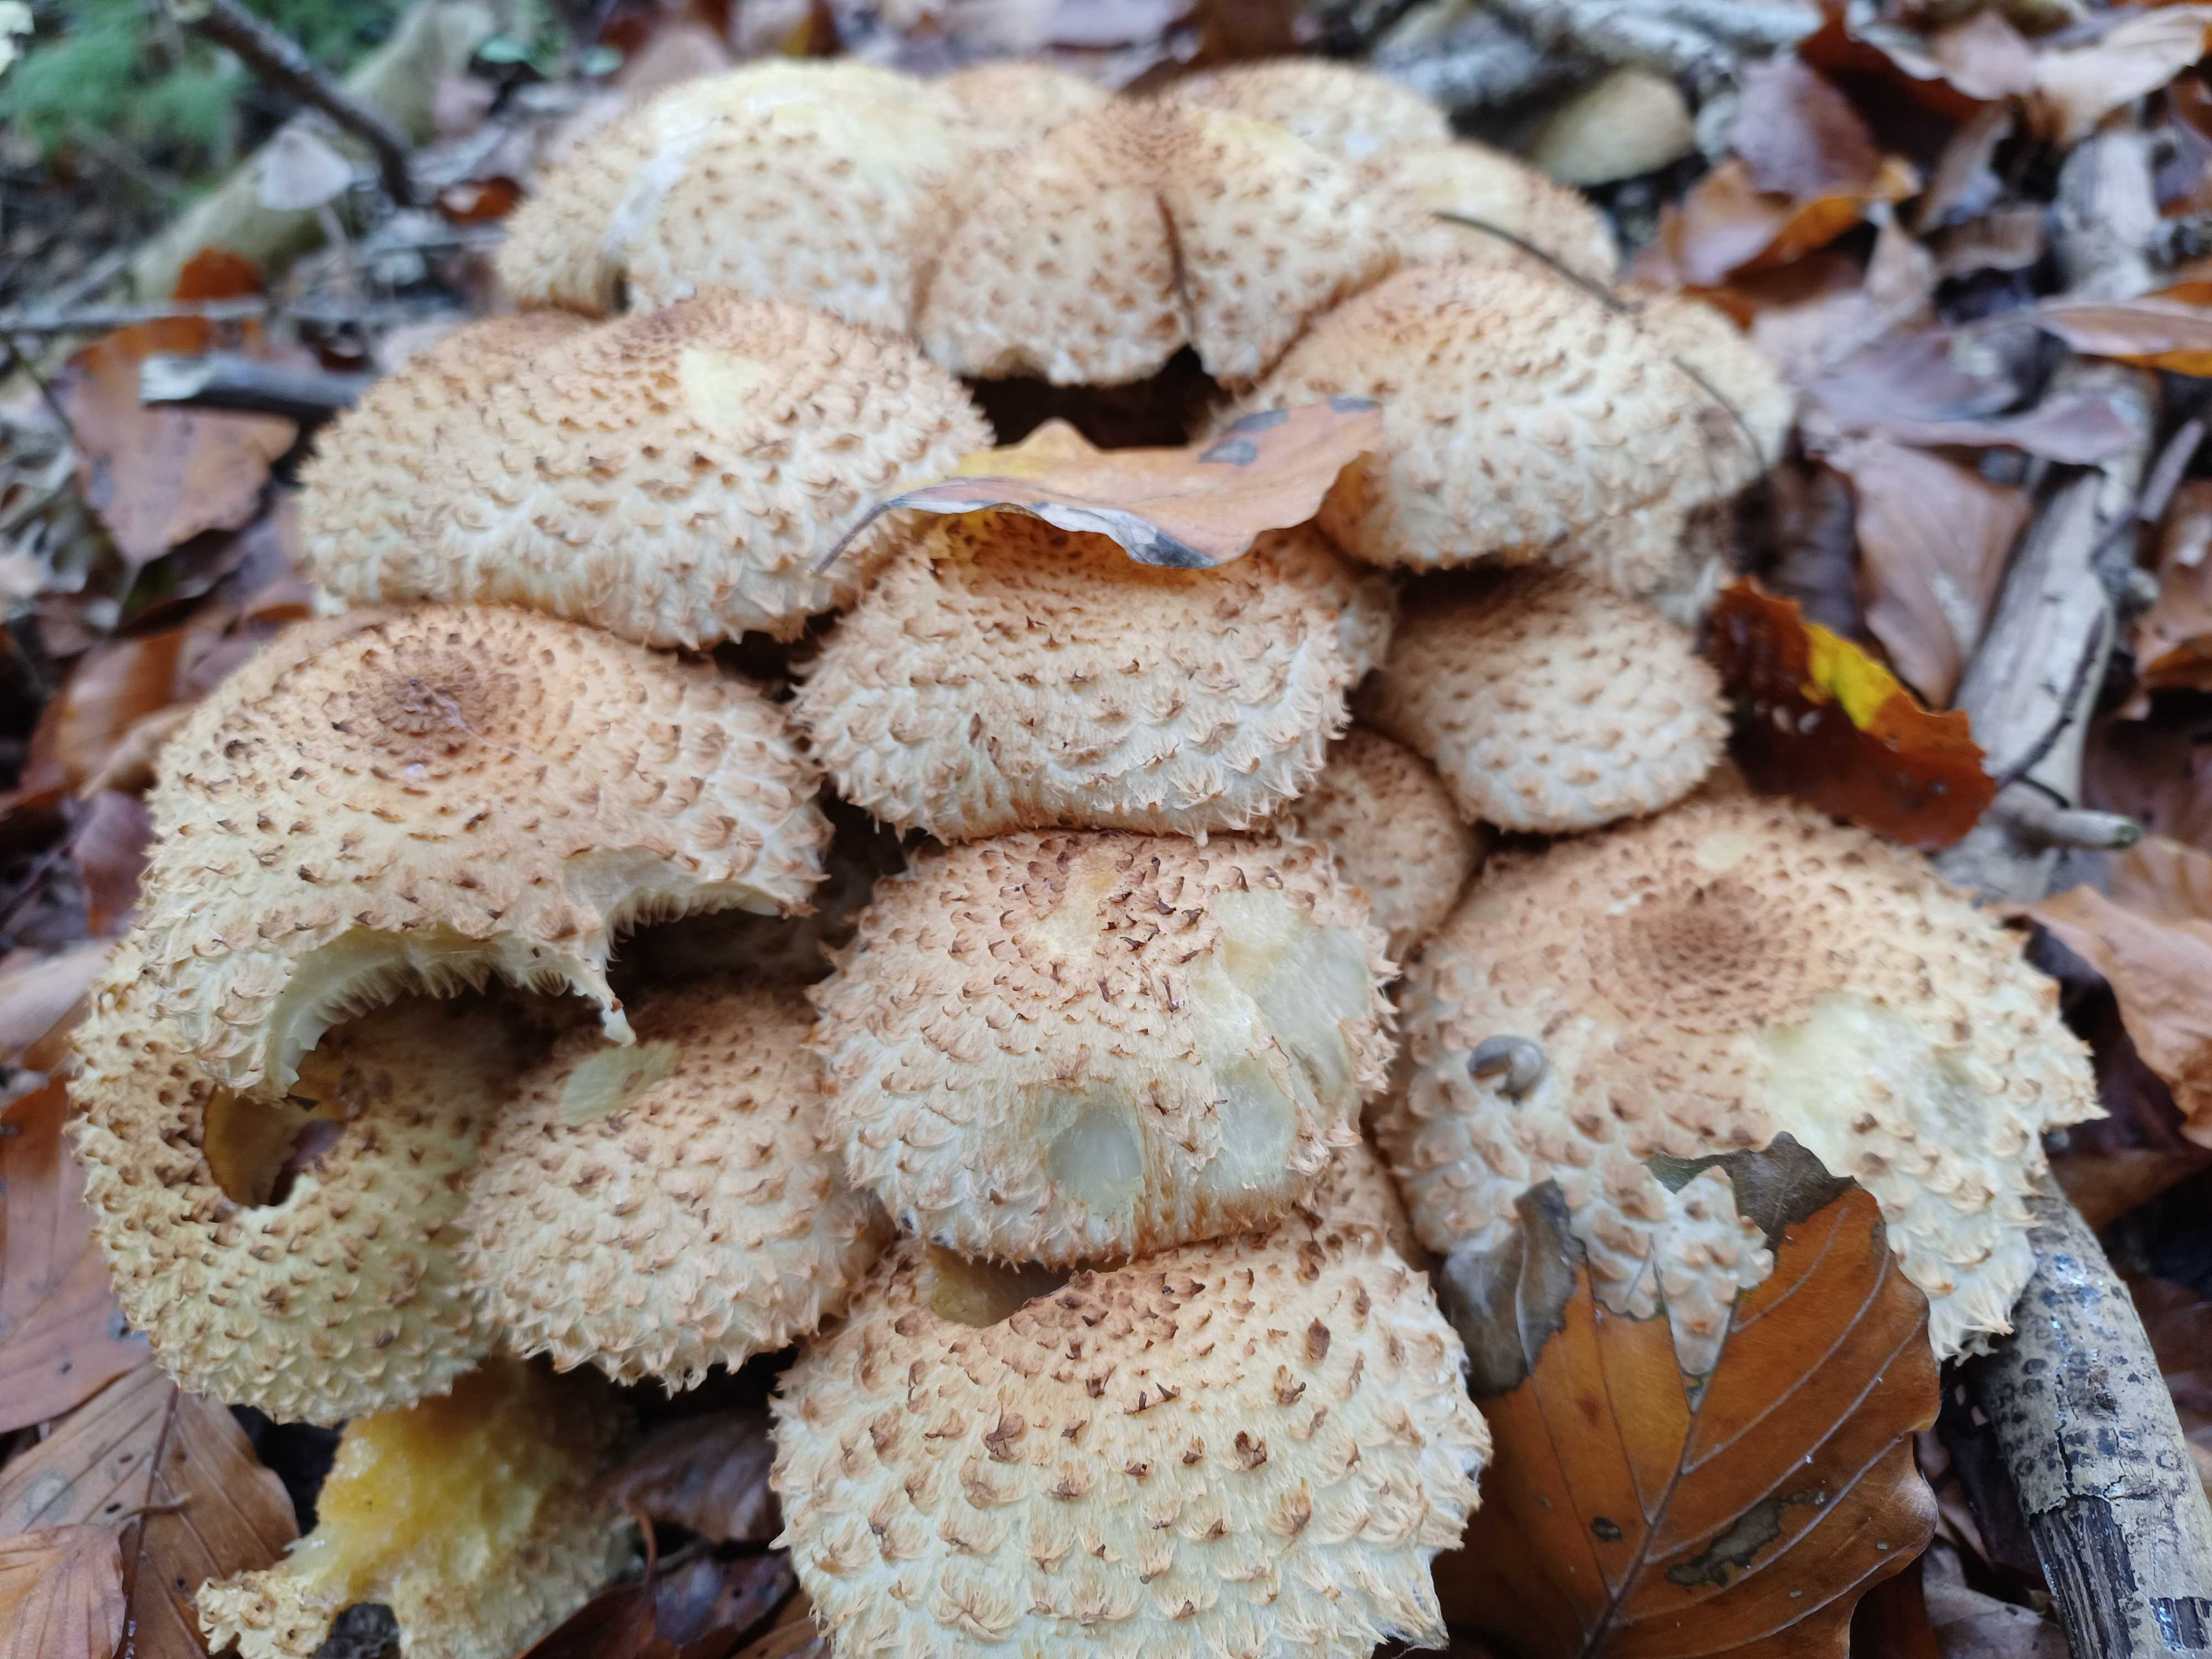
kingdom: Fungi
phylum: Basidiomycota
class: Agaricomycetes
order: Agaricales
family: Strophariaceae
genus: Pholiota
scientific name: Pholiota squarrosa
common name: krumskællet skælhat
